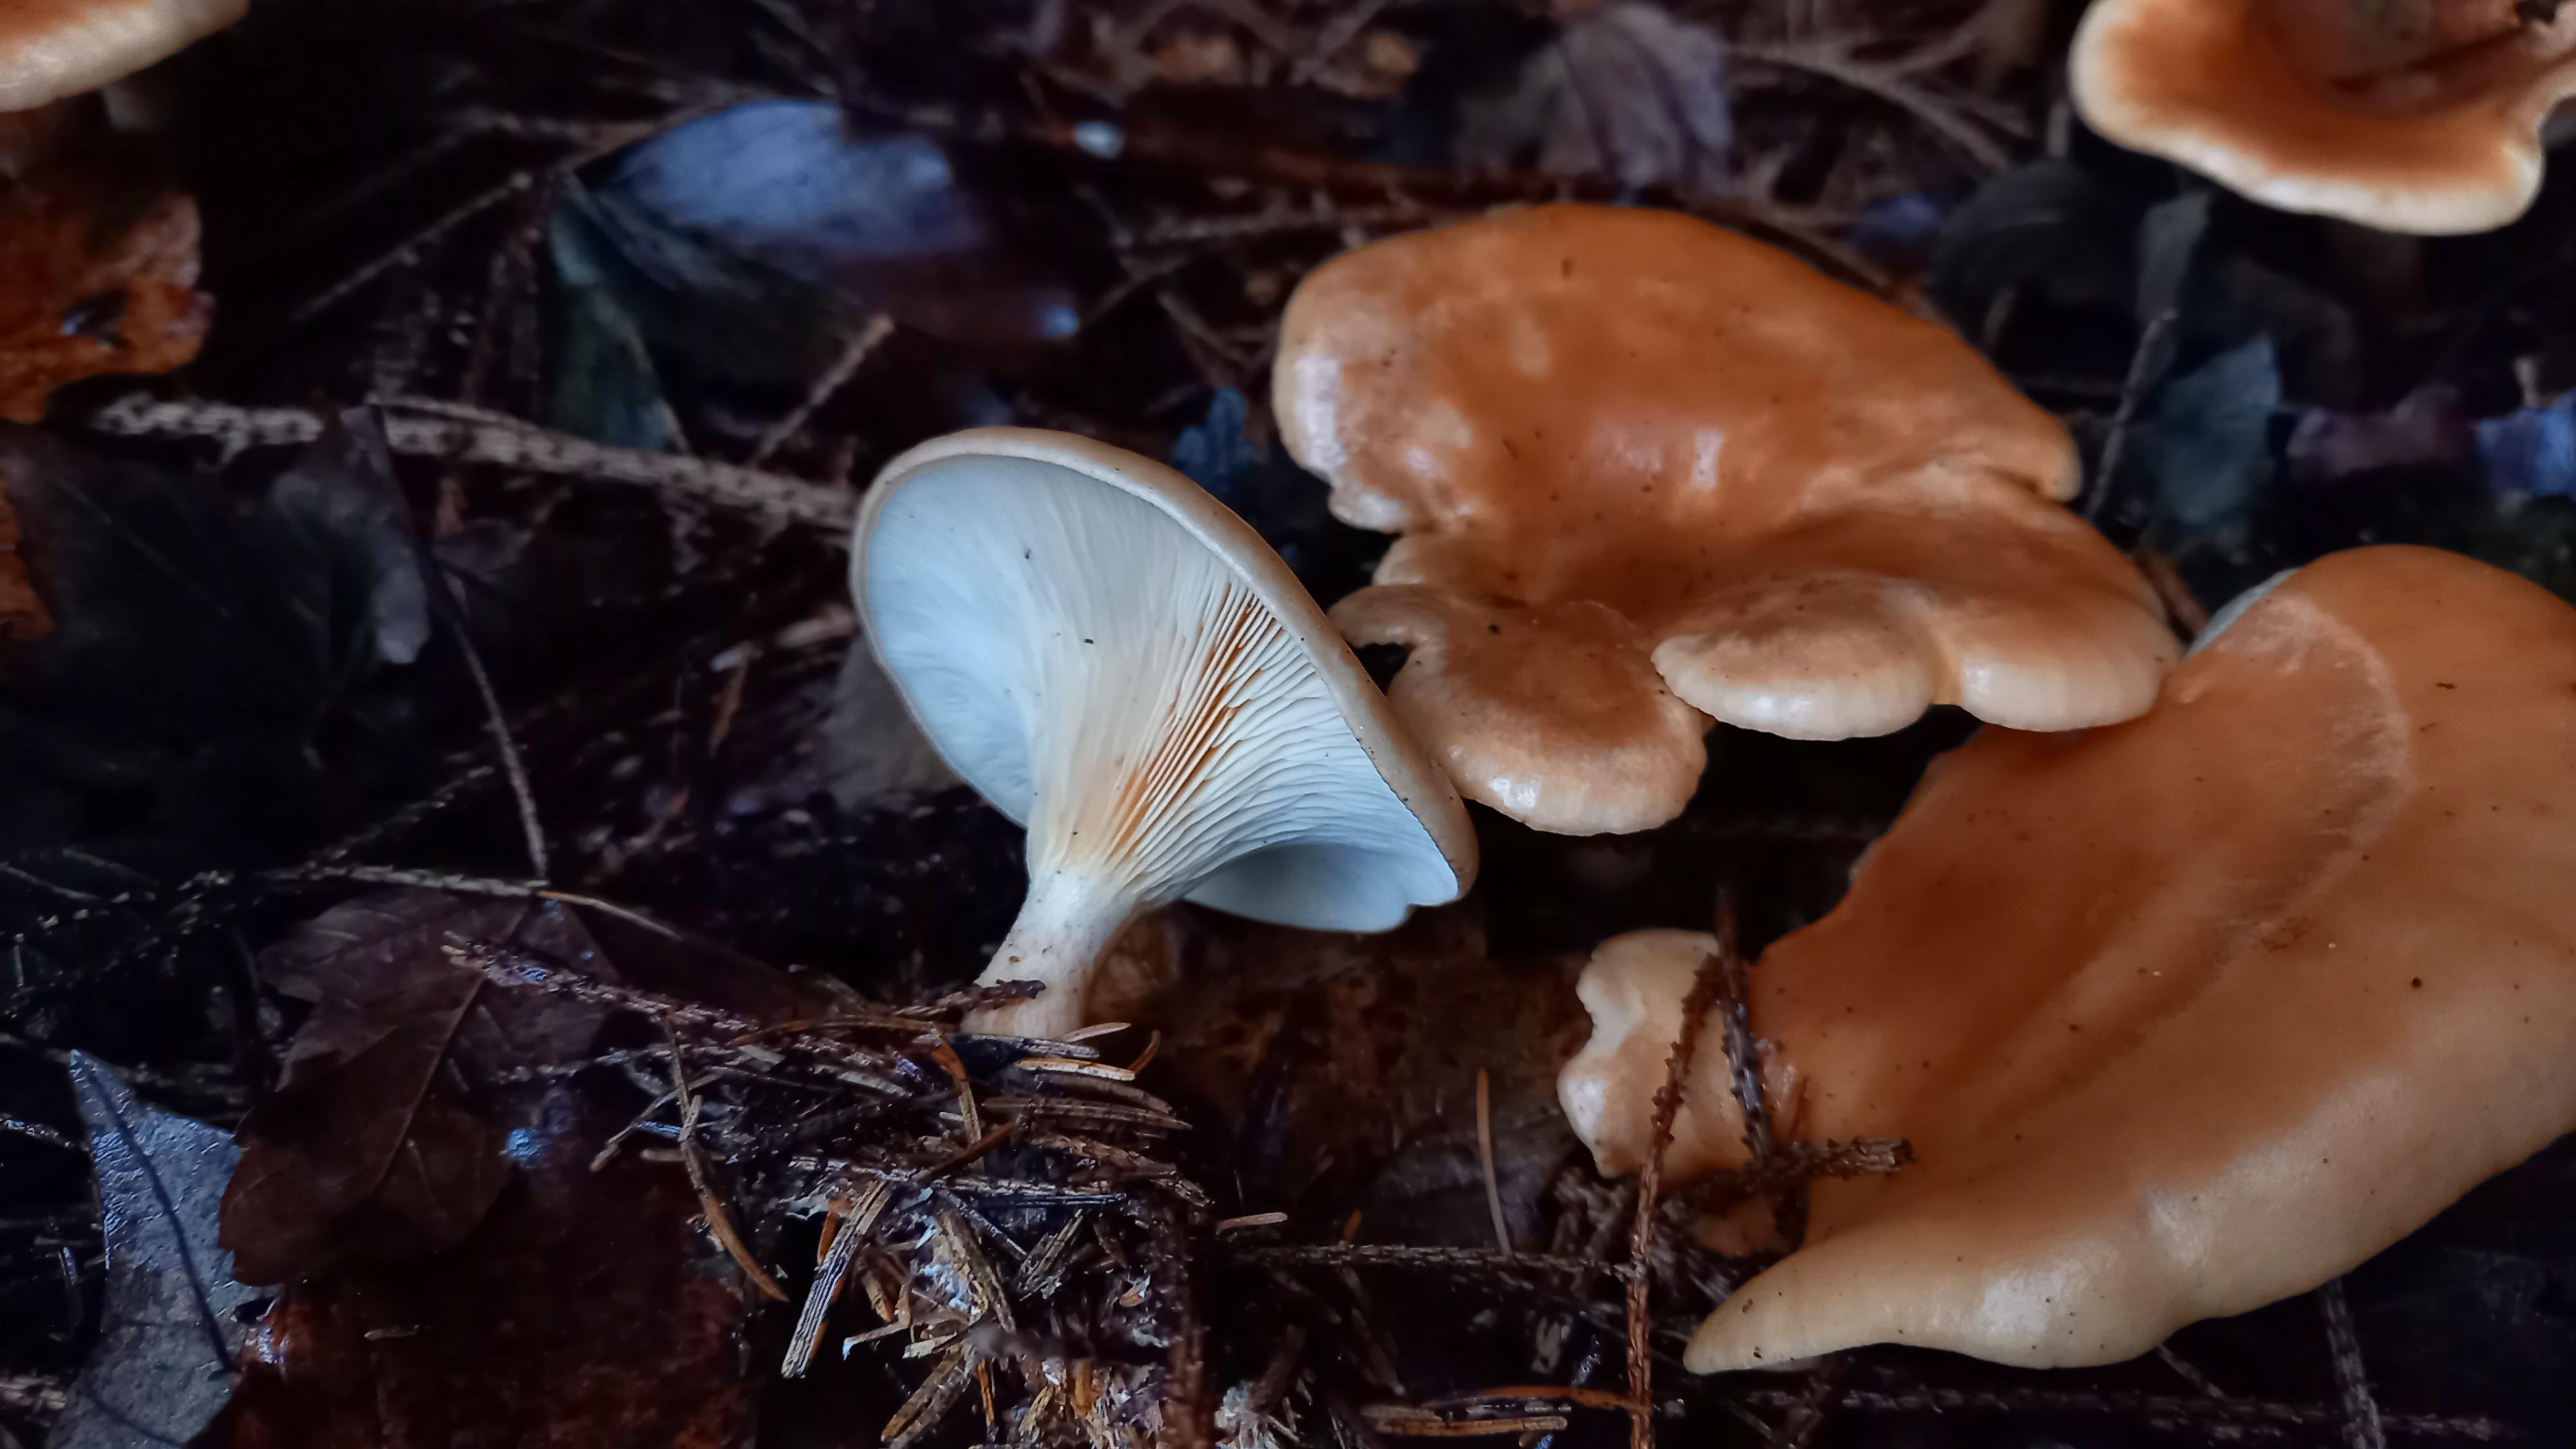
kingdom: Fungi
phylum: Basidiomycota
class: Agaricomycetes
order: Agaricales
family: Tricholomataceae
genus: Paralepista
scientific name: Paralepista flaccida
